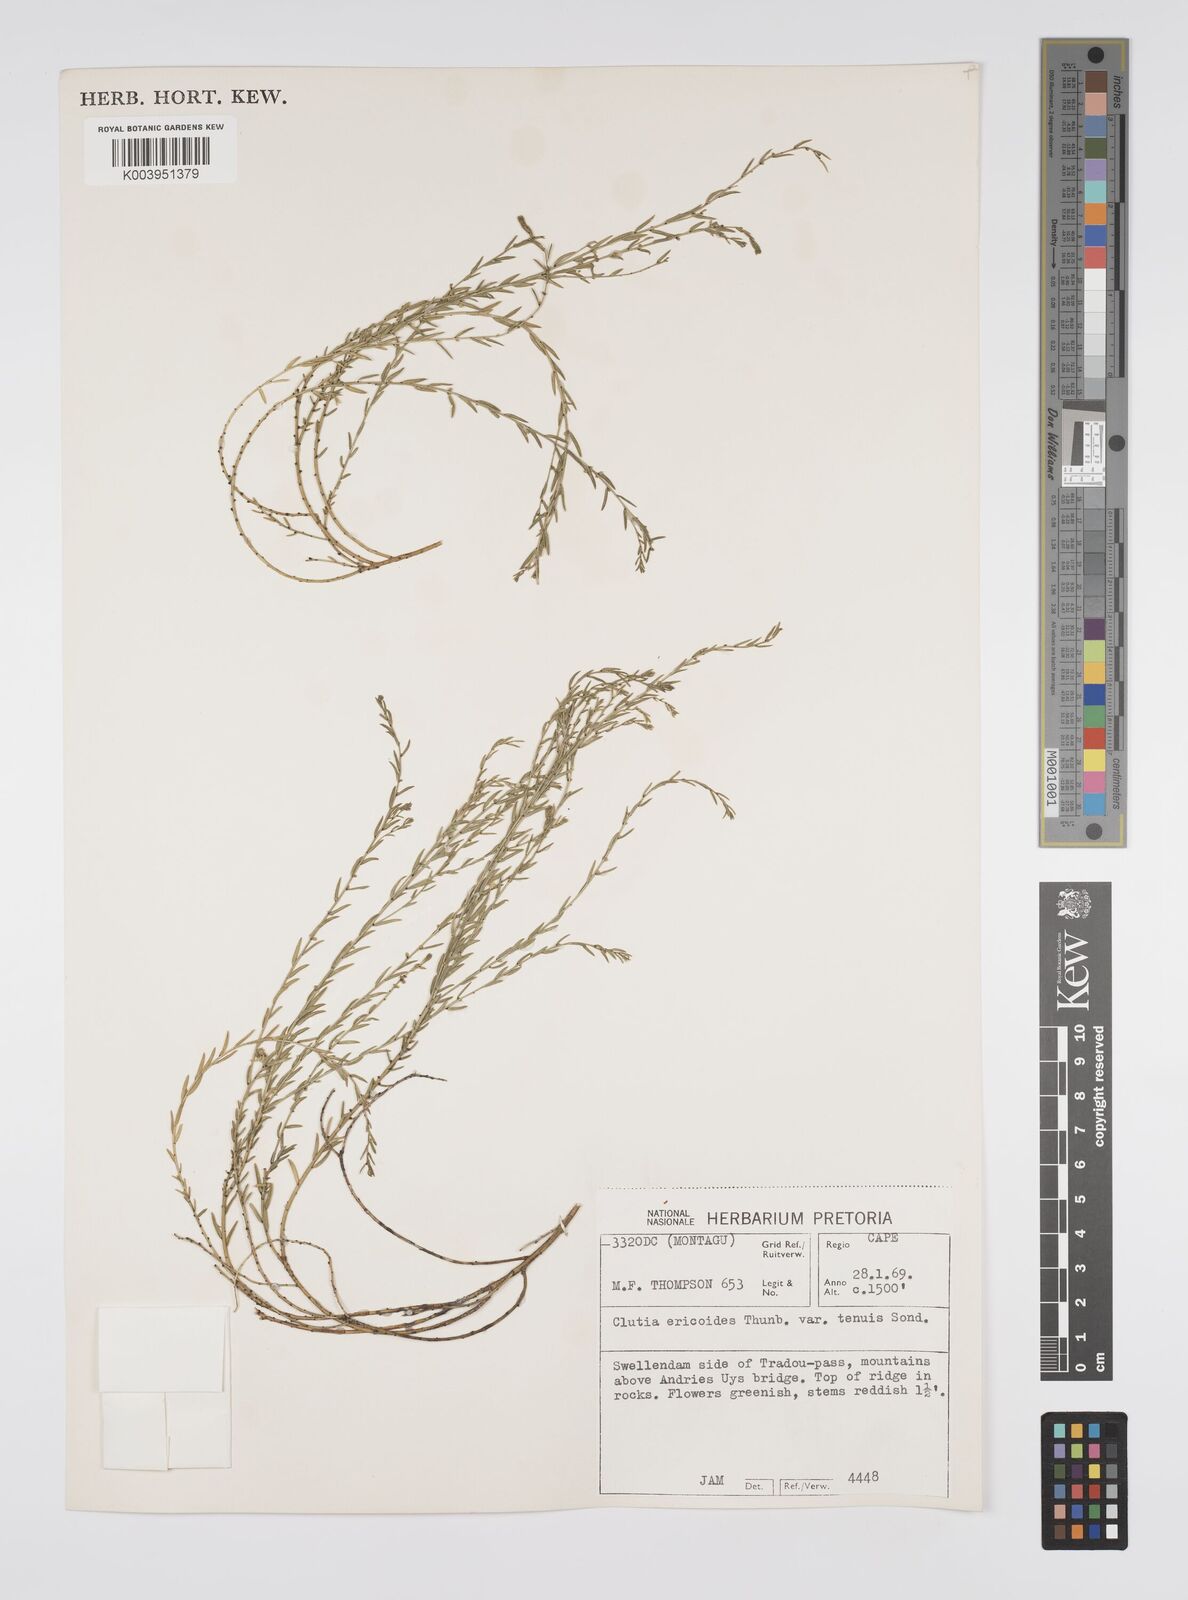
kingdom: Plantae
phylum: Tracheophyta
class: Magnoliopsida
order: Malpighiales
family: Peraceae
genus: Clutia
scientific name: Clutia
